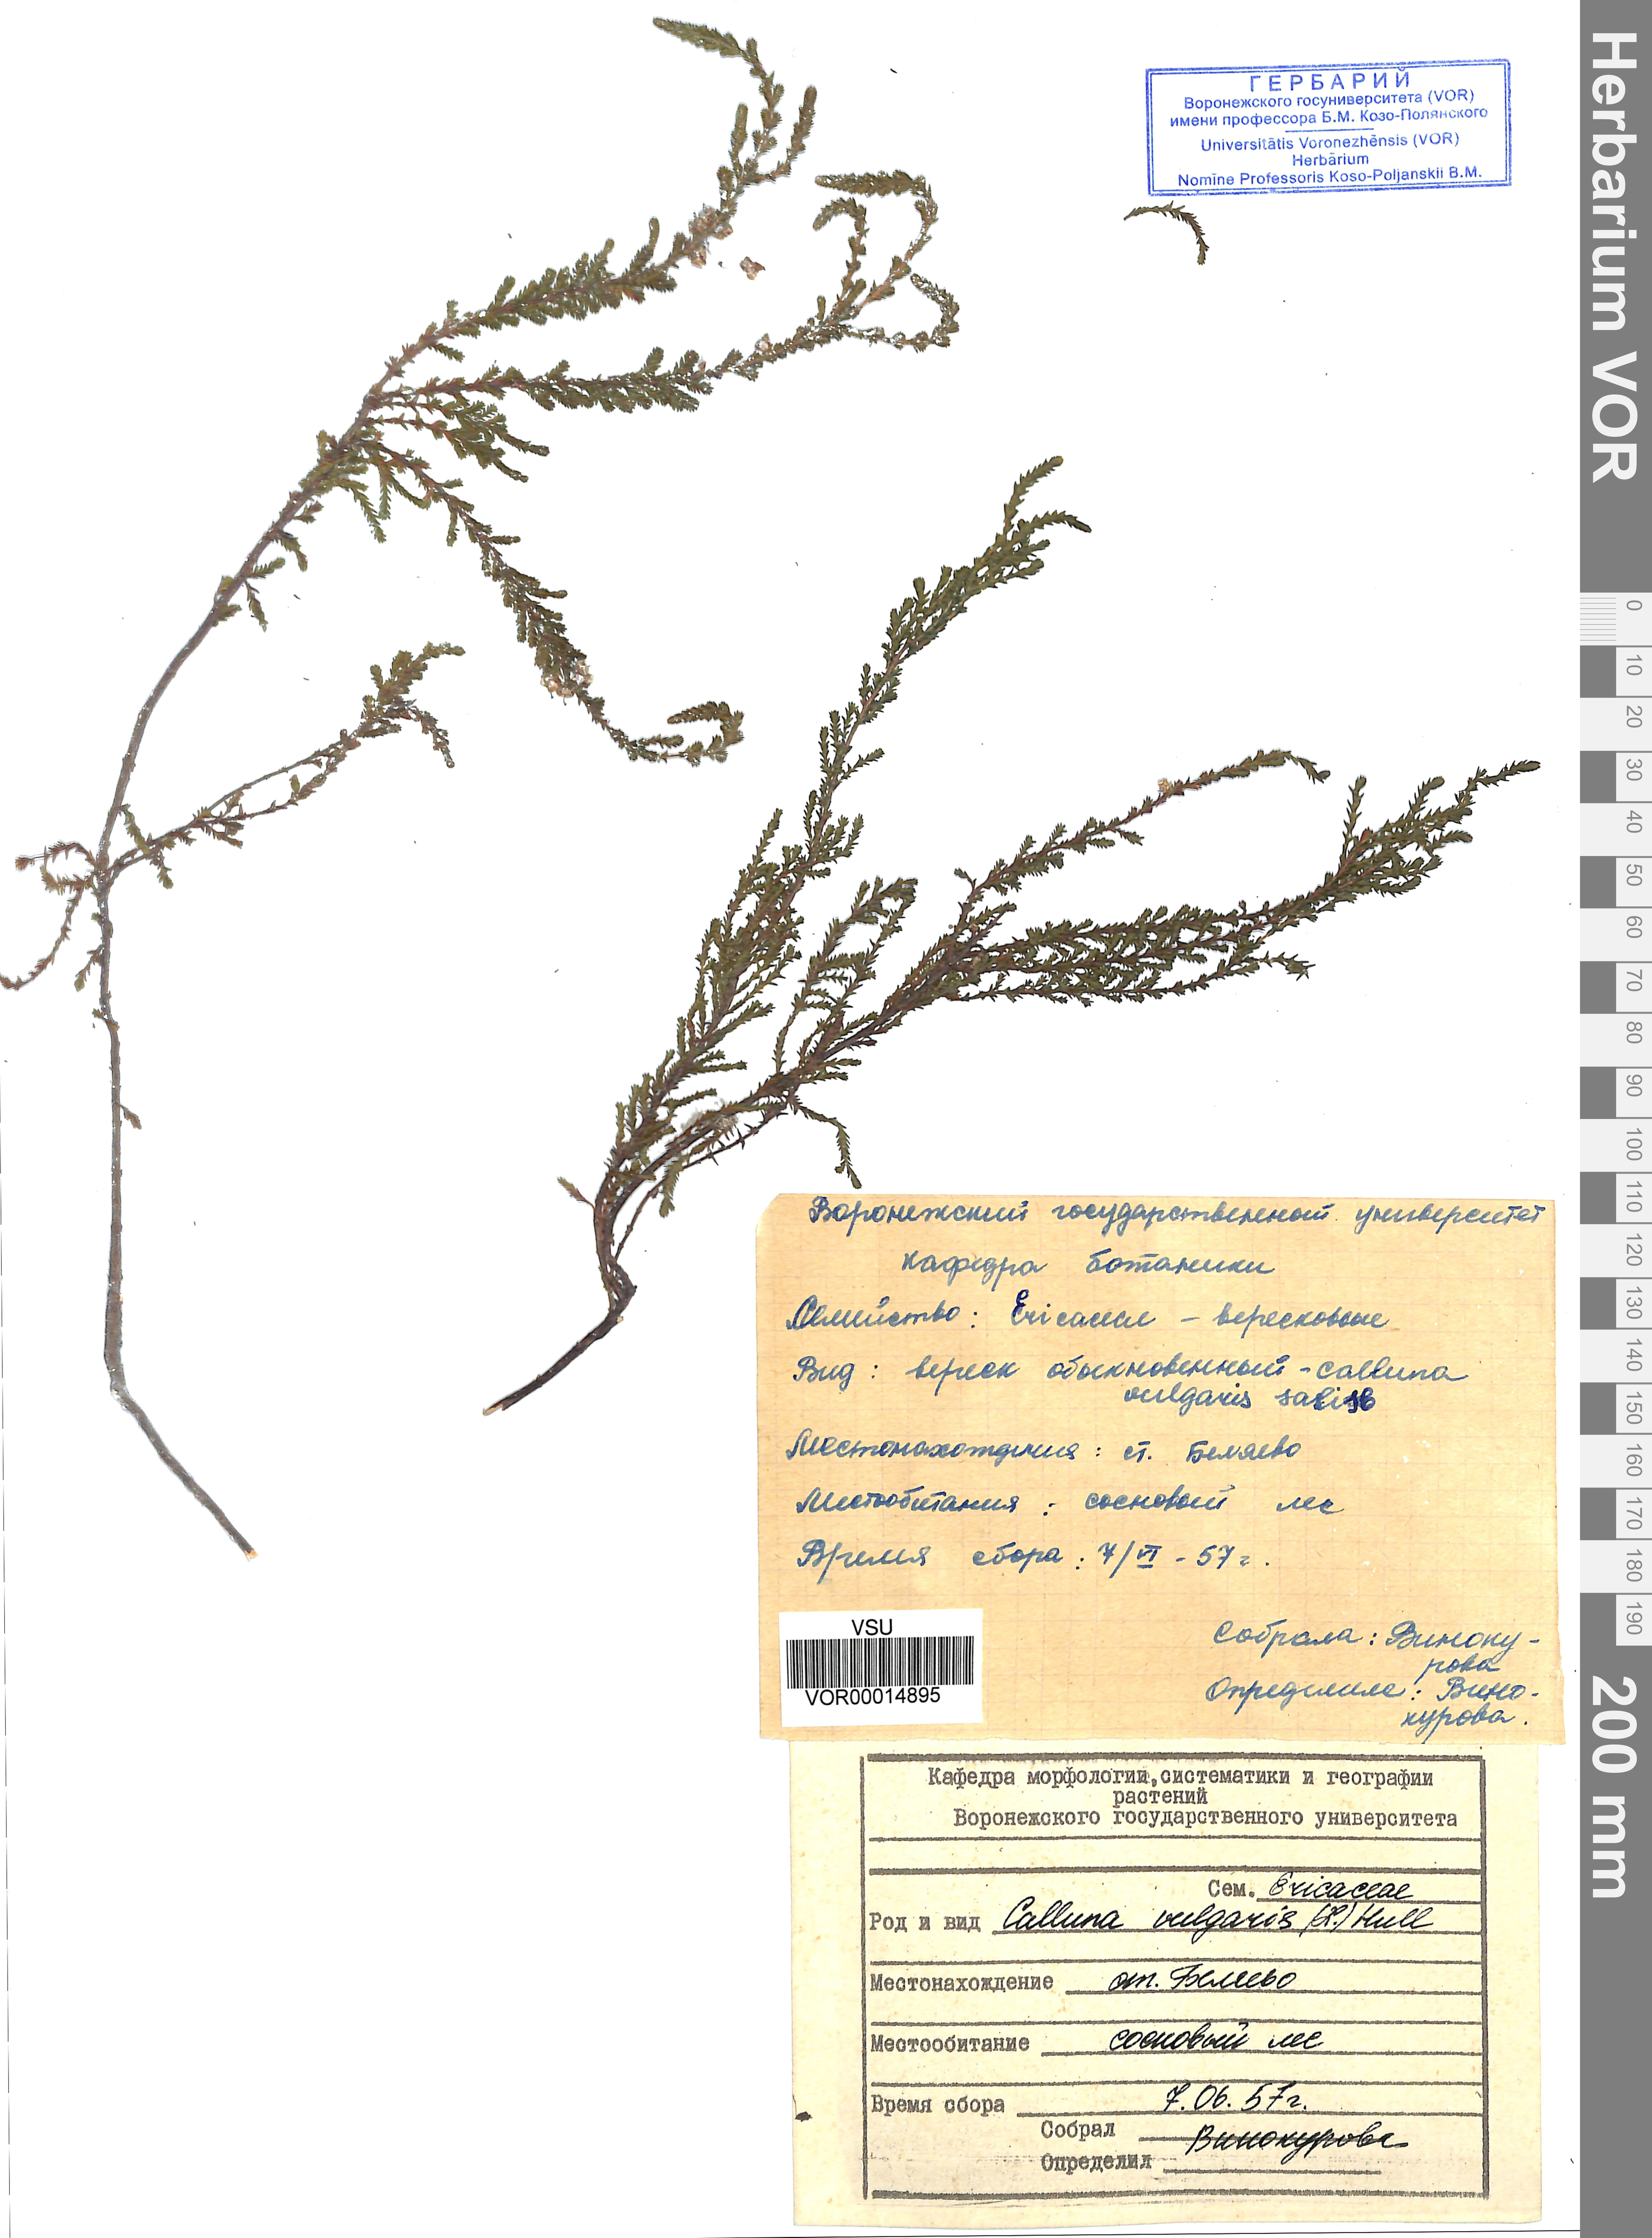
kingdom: Plantae
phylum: Tracheophyta
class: Magnoliopsida
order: Ericales
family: Ericaceae
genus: Calluna
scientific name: Calluna vulgaris
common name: Heather
